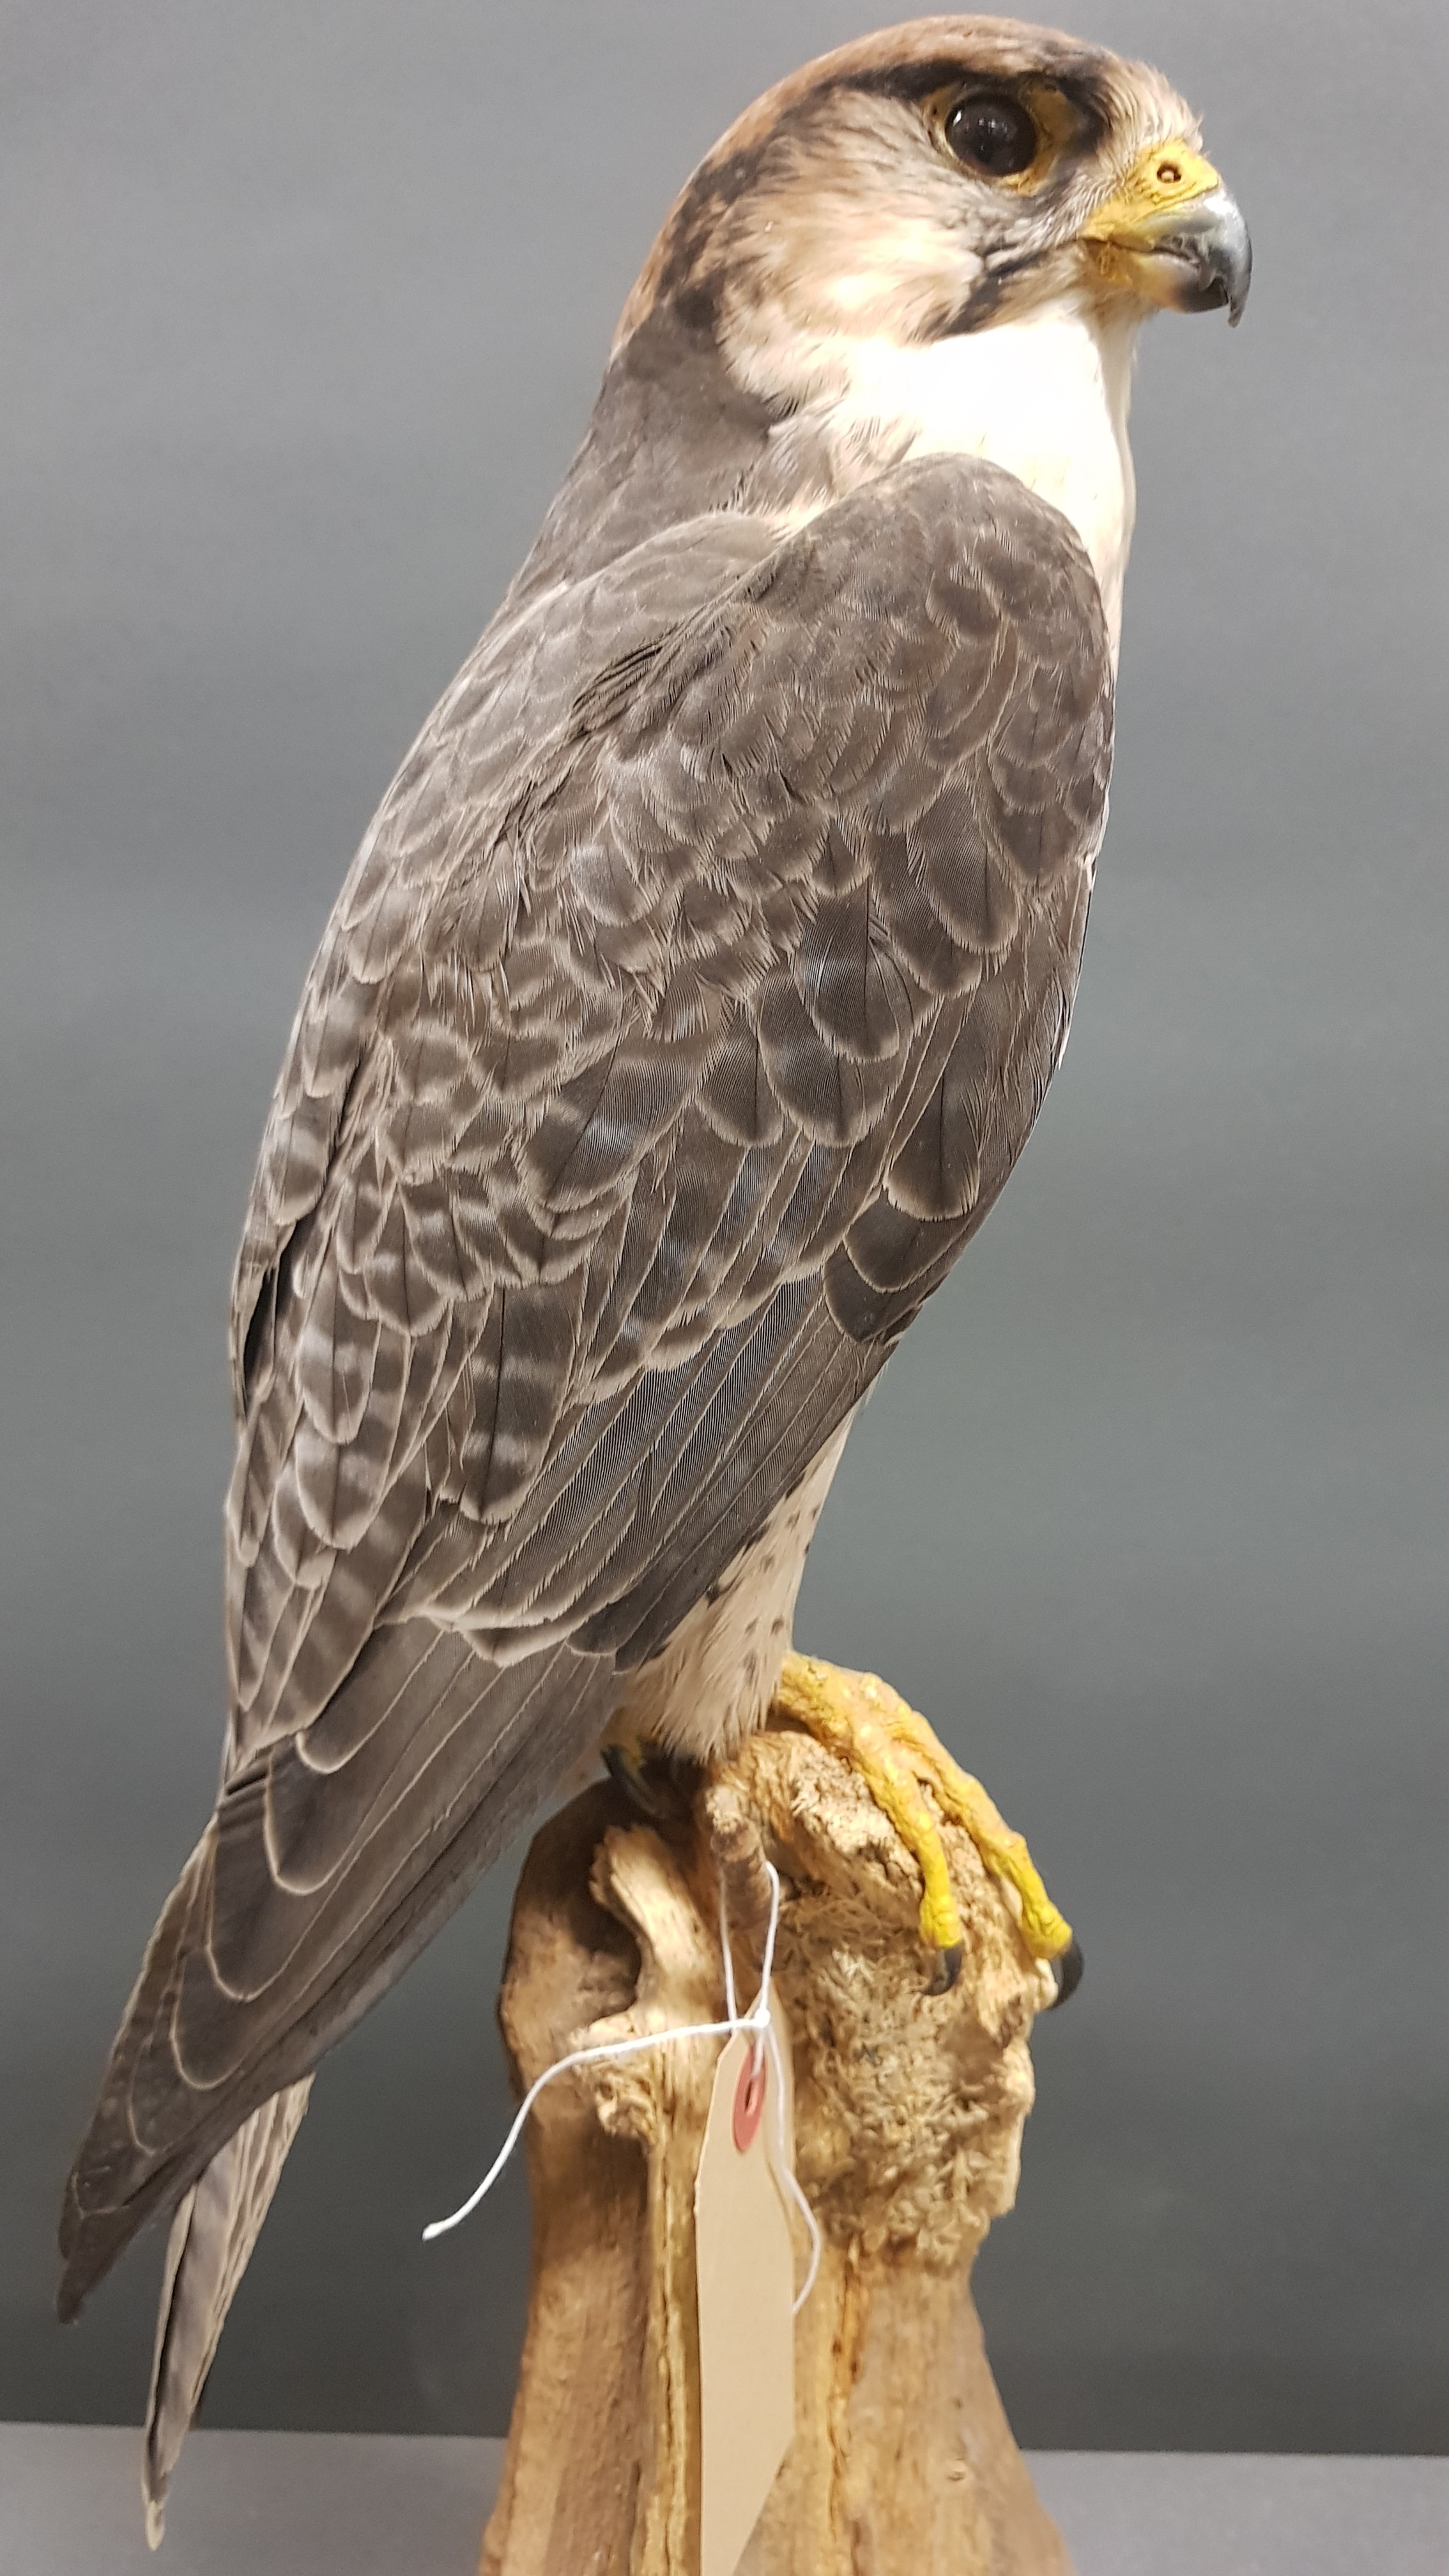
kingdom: Animalia
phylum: Chordata
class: Aves
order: Falconiformes
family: Falconidae
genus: Falco
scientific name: Falco biarmicus
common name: Lanner falcon
